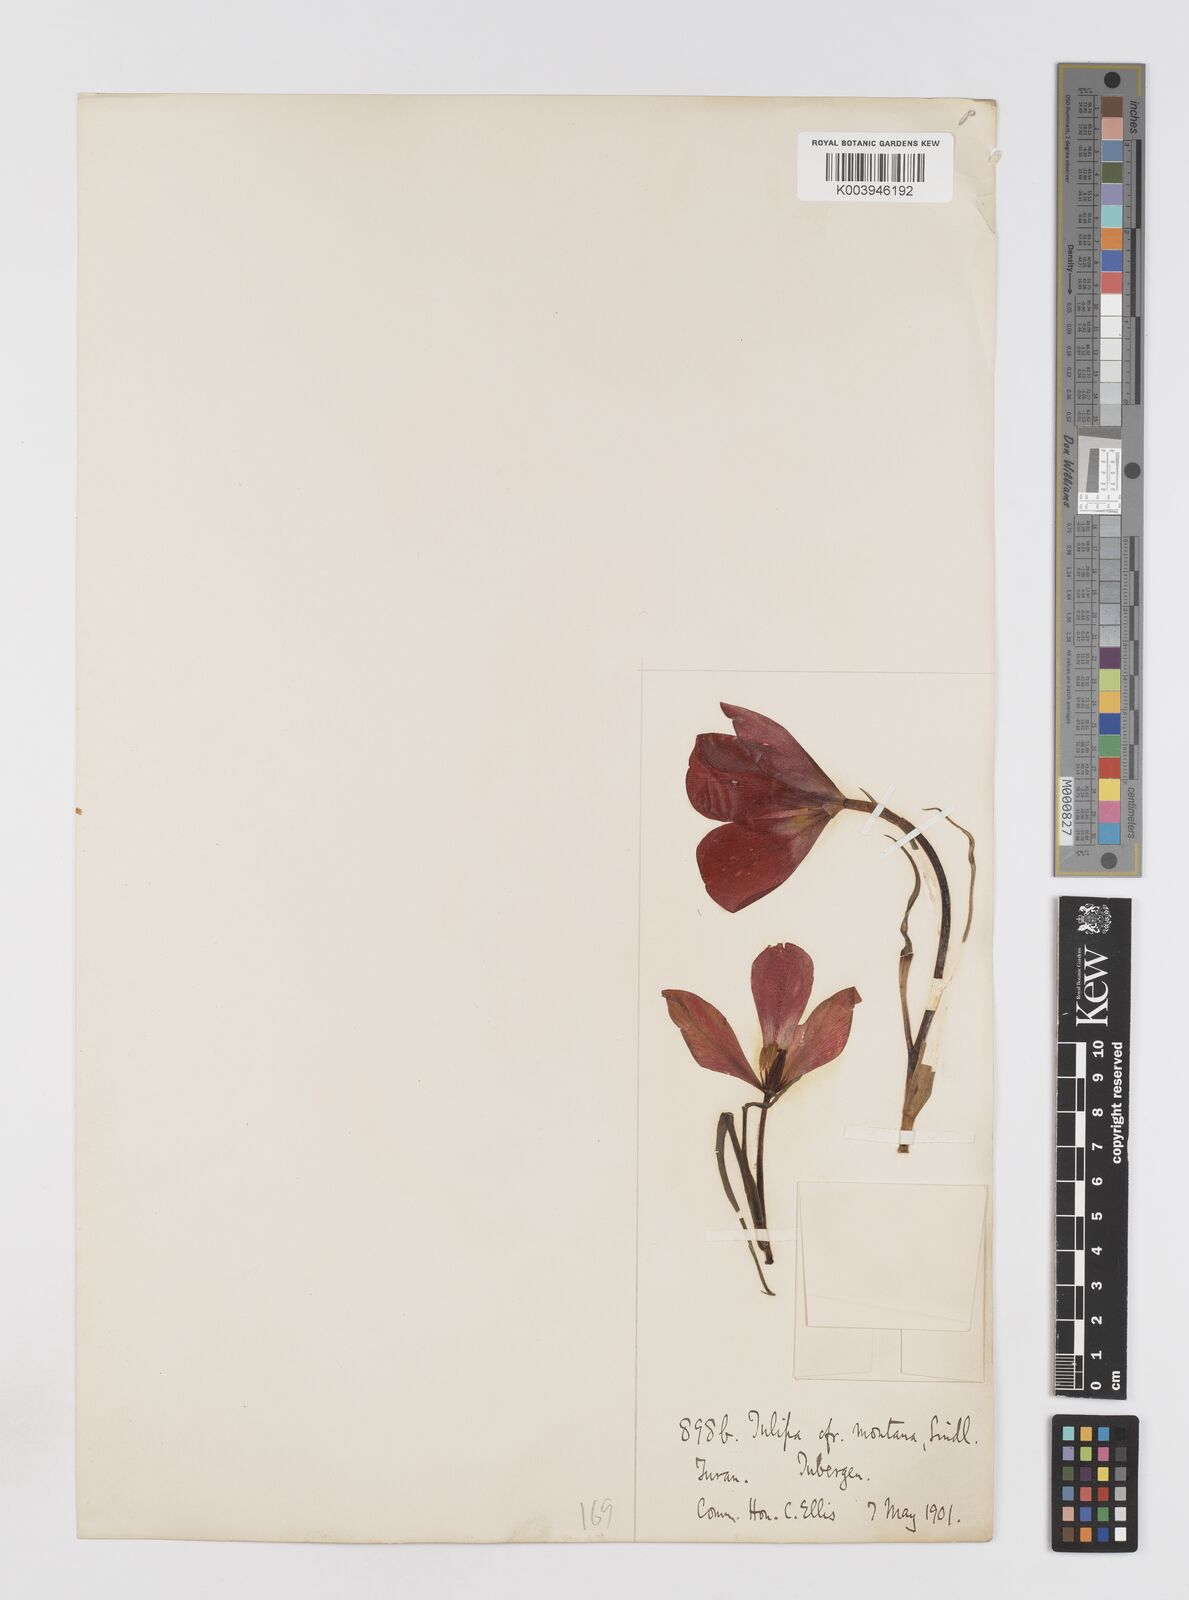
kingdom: Plantae
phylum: Tracheophyta
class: Liliopsida
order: Liliales
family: Liliaceae
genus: Tulipa
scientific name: Tulipa montana
